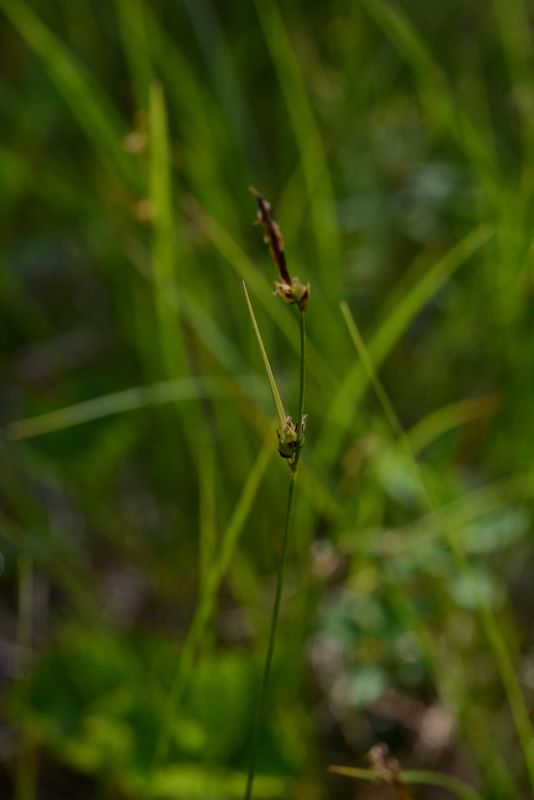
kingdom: Plantae
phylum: Tracheophyta
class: Liliopsida
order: Poales
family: Cyperaceae
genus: Carex
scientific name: Carex globularis
